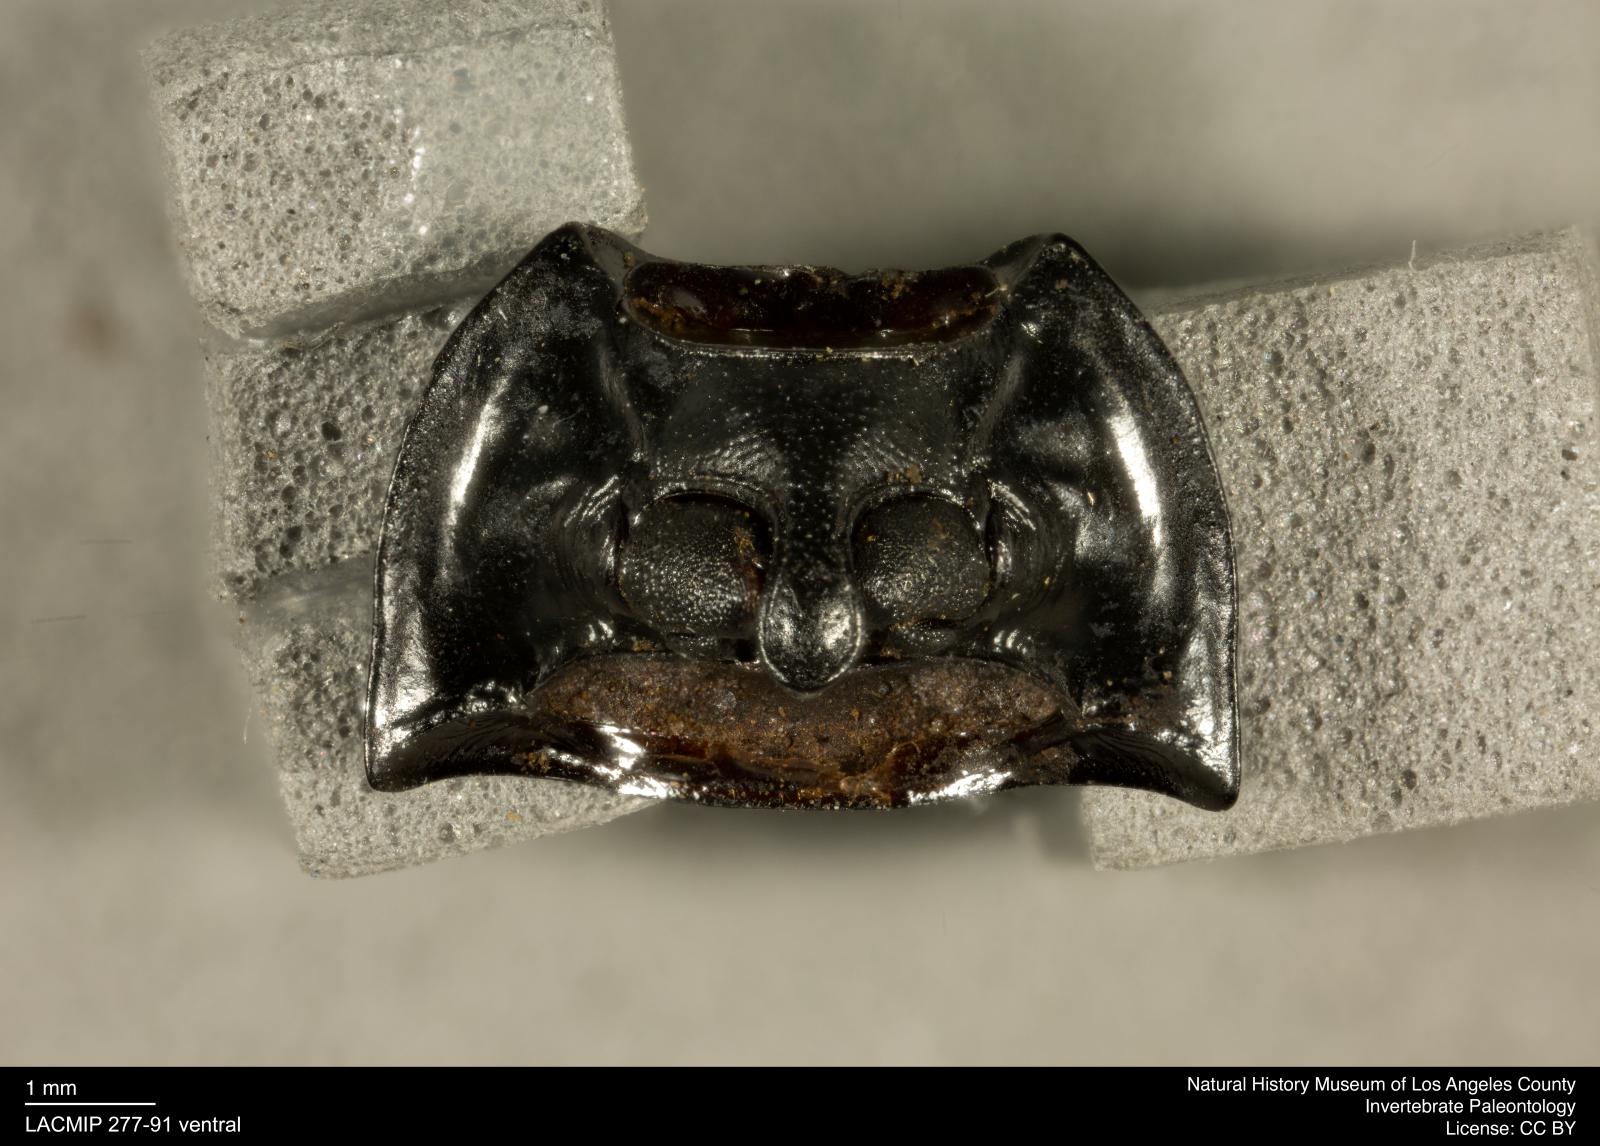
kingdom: Animalia
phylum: Arthropoda
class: Insecta
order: Coleoptera
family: Tenebrionidae
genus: Coniontis
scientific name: Coniontis abdominalis
